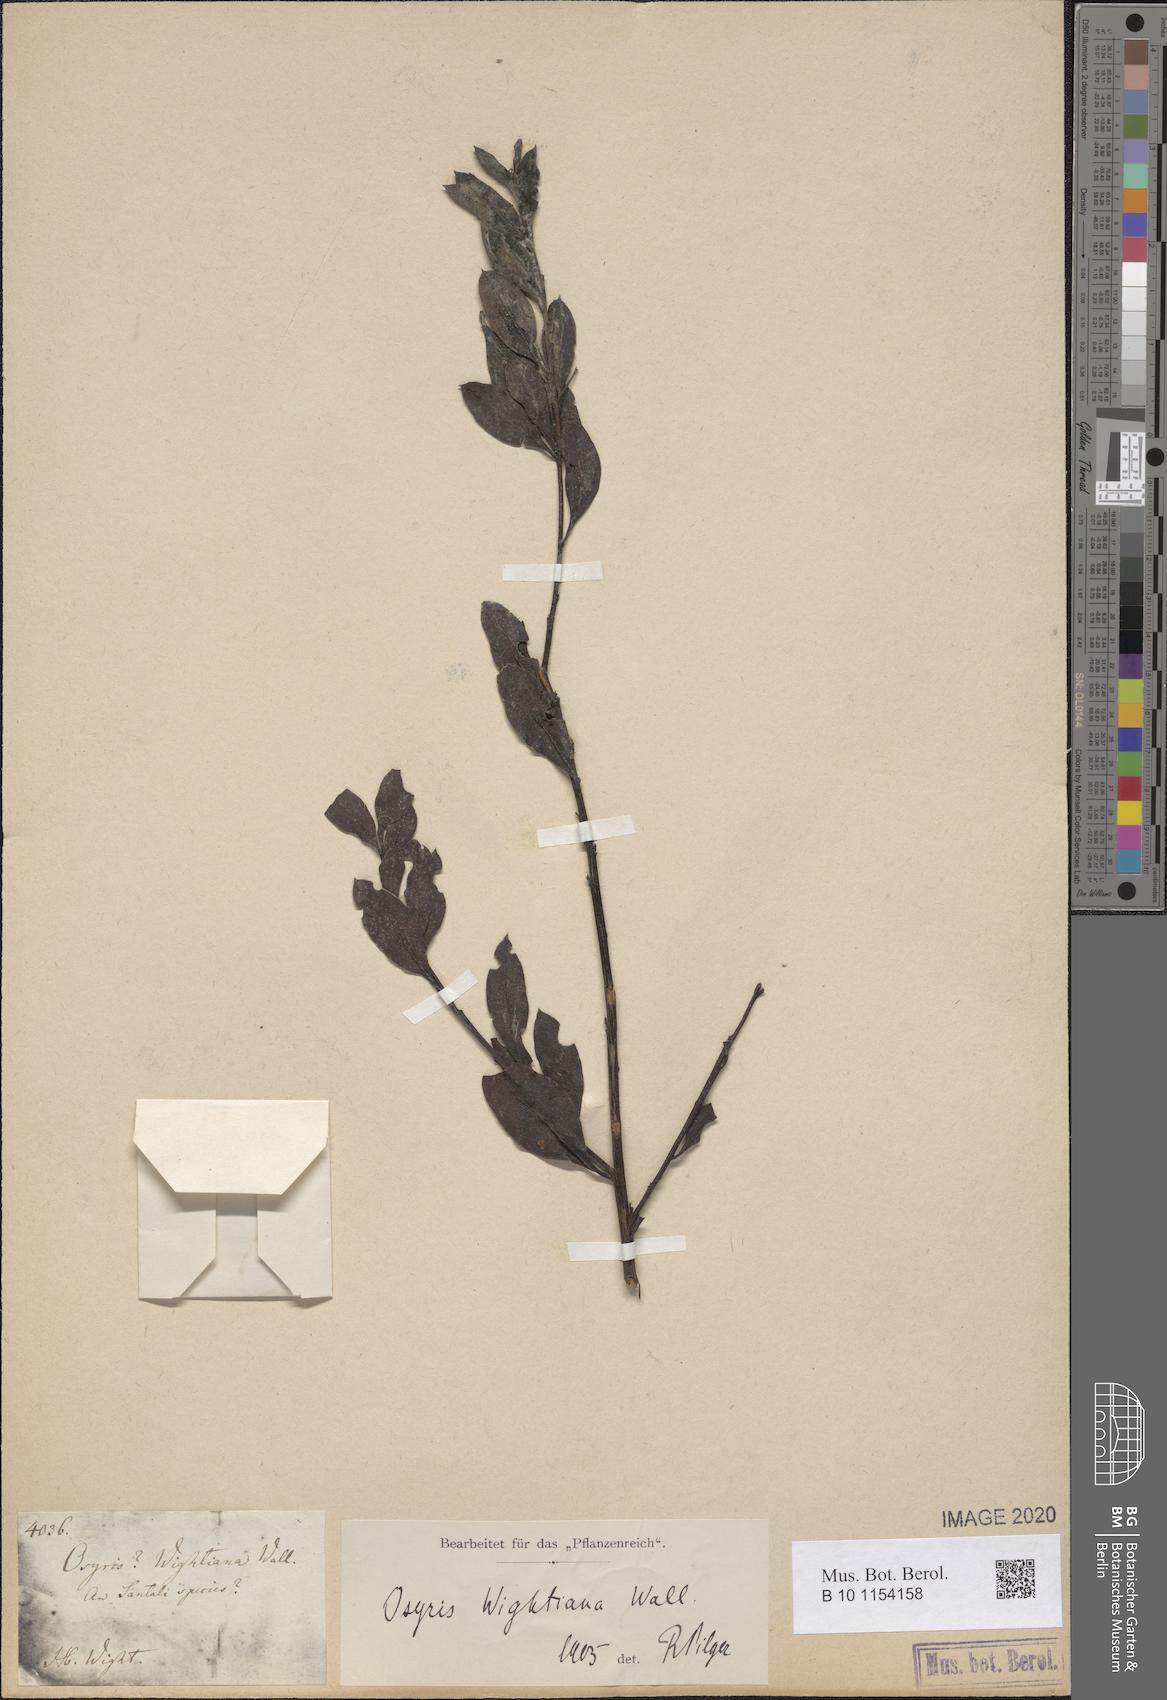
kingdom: Plantae
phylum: Tracheophyta
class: Magnoliopsida
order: Santalales
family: Santalaceae
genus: Osyris
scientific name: Osyris lanceolata
